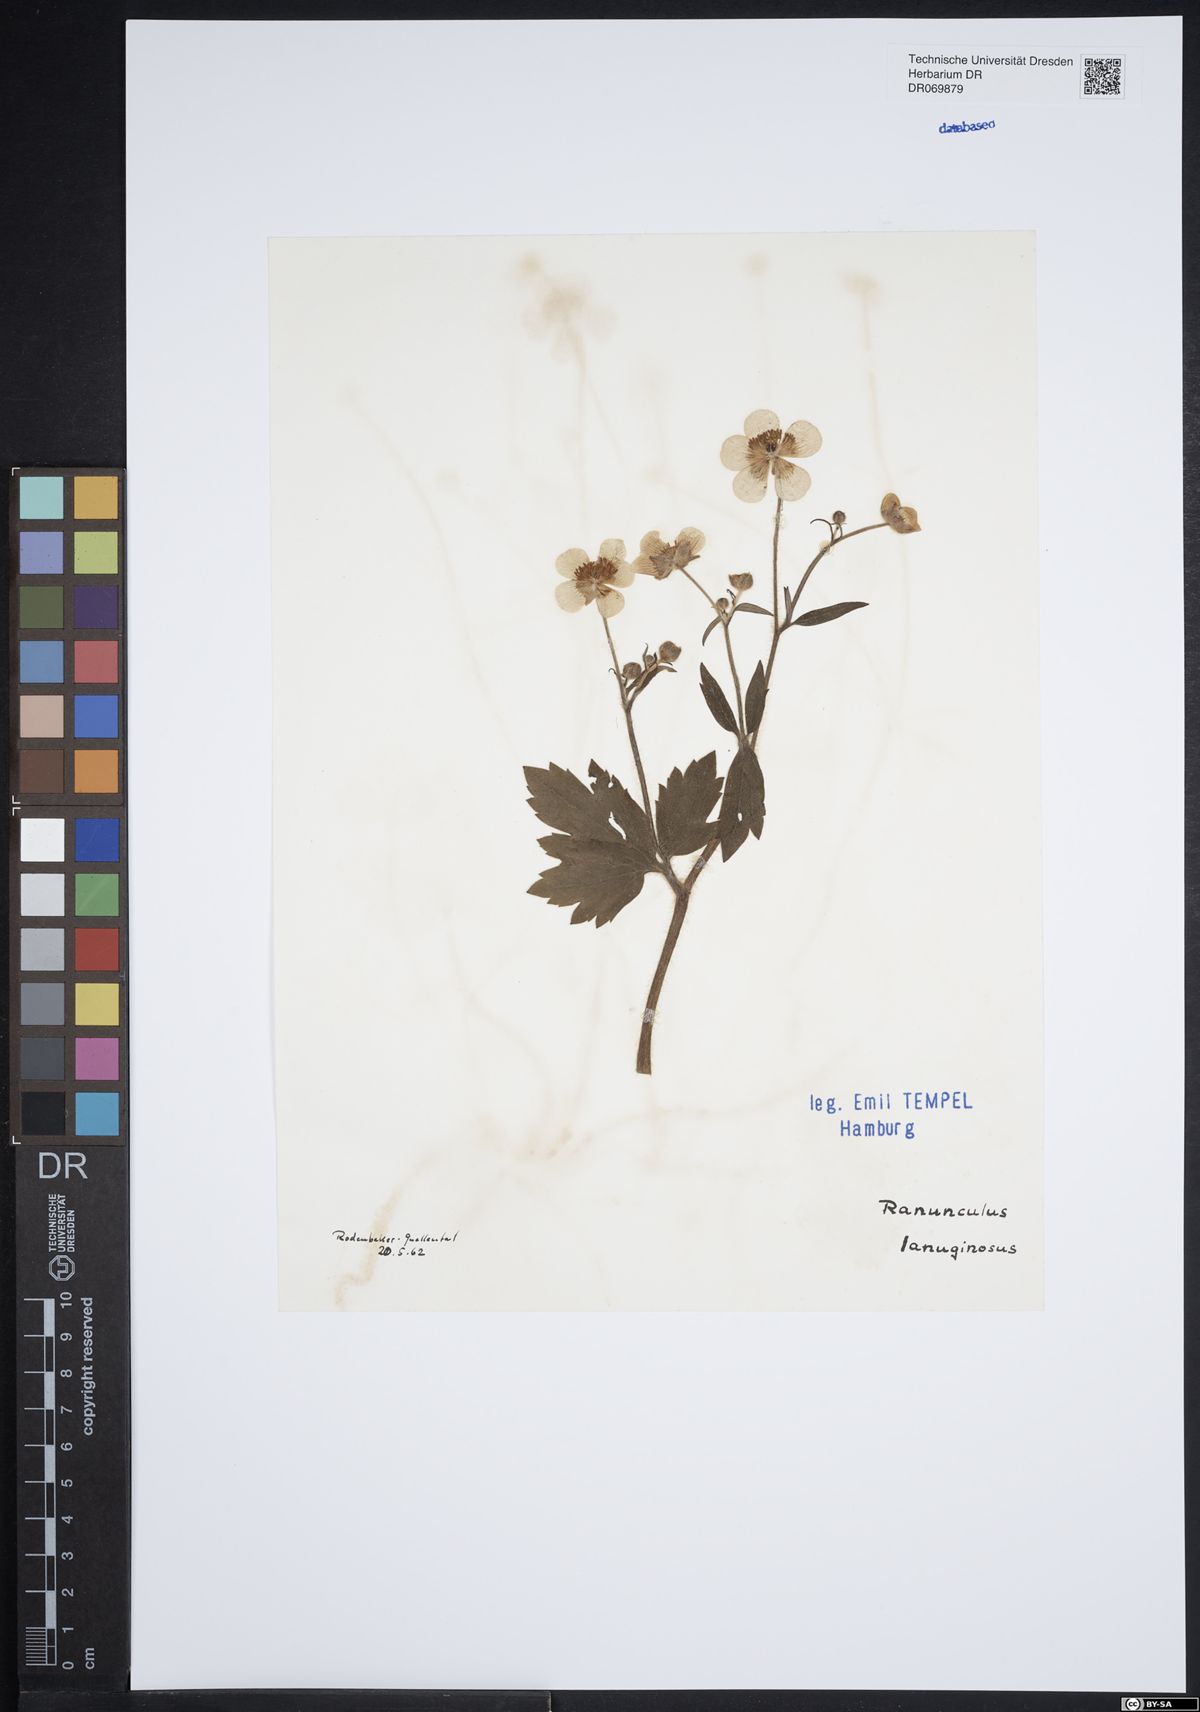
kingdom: Plantae
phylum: Tracheophyta
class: Magnoliopsida
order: Ranunculales
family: Ranunculaceae
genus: Ranunculus
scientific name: Ranunculus lanuginosus
